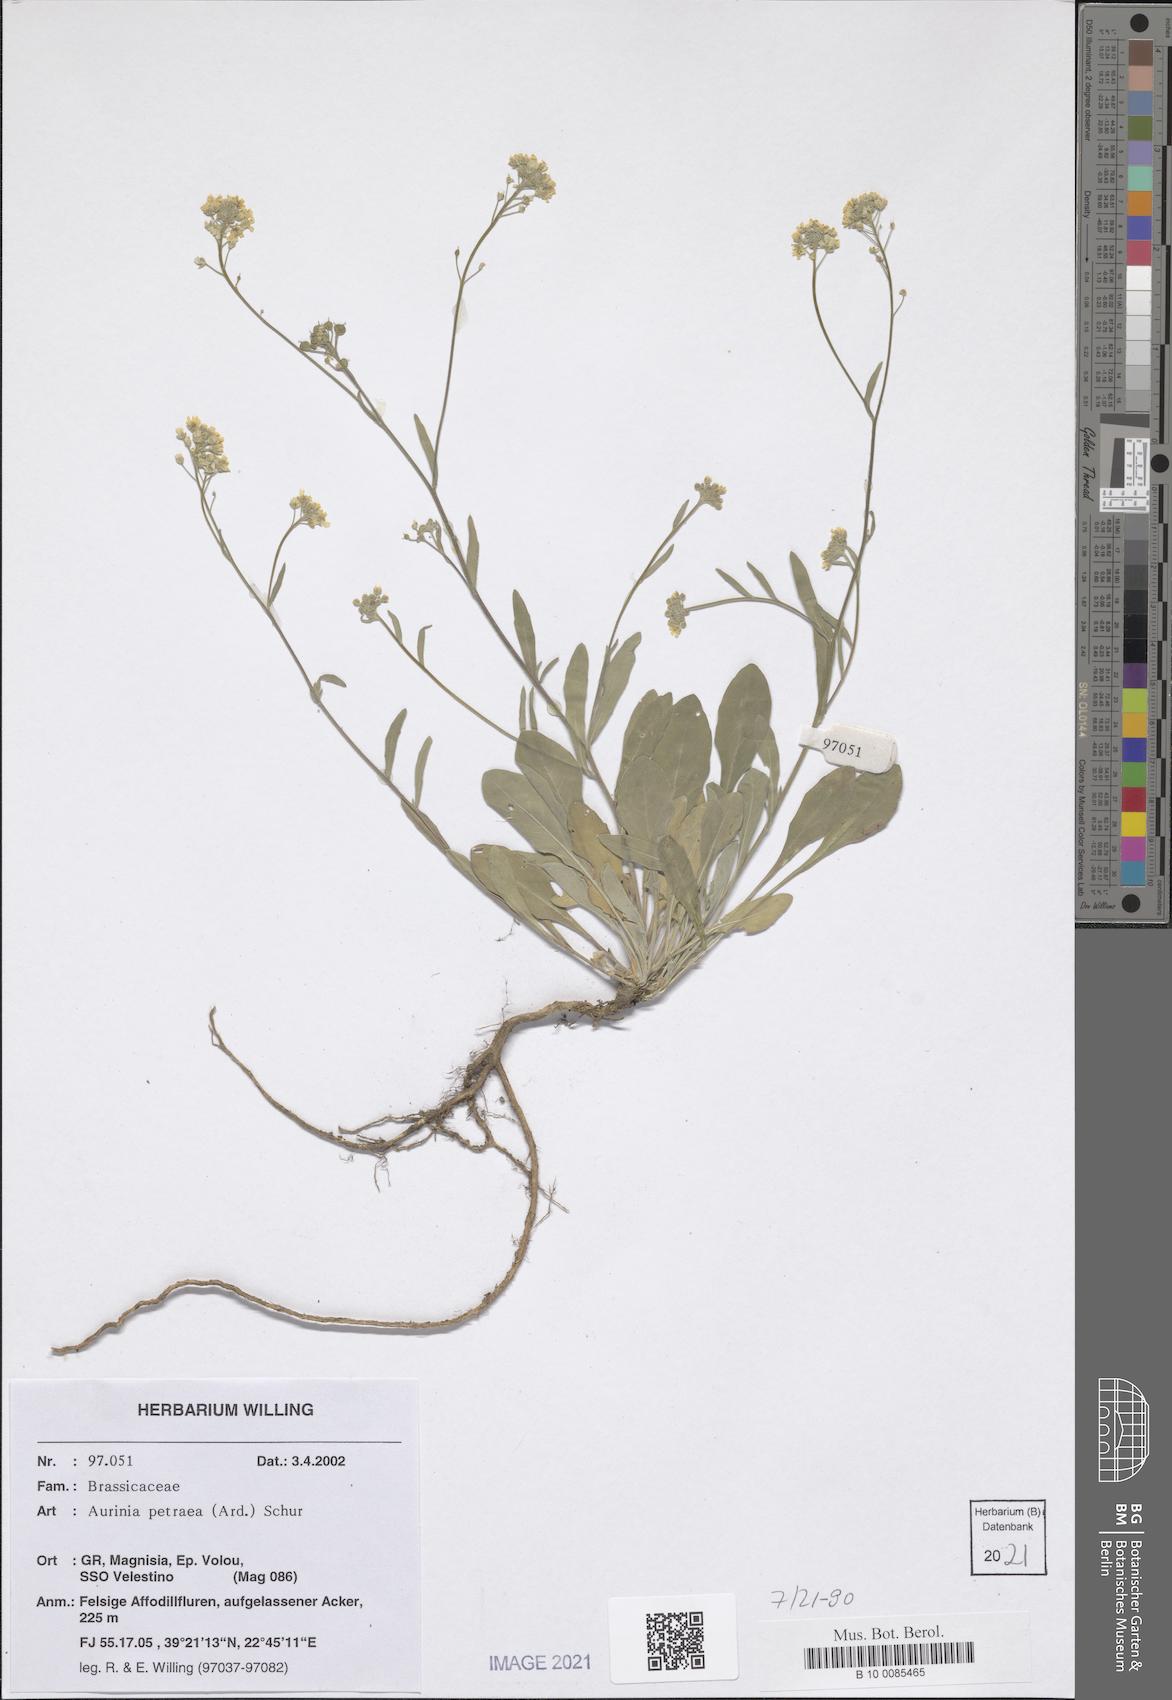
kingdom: Plantae
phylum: Tracheophyta
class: Magnoliopsida
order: Brassicales
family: Brassicaceae
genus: Aurinia
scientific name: Aurinia petraea
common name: Goldentuft
